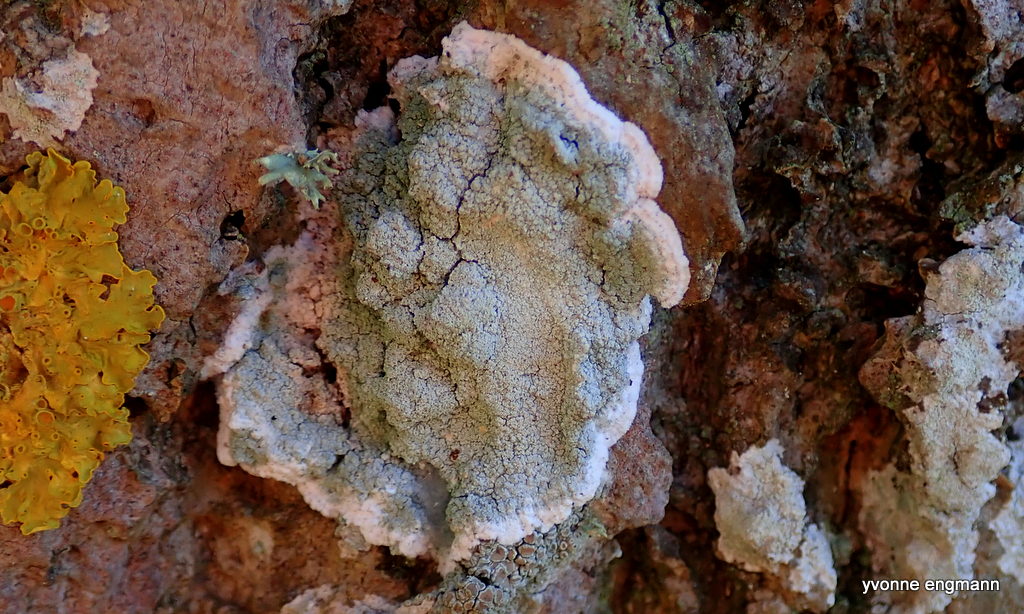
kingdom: Fungi
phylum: Ascomycota
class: Lecanoromycetes
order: Lecanorales
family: Haematommataceae
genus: Haematomma
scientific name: Haematomma ochroleucum
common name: gul trådkantlav
